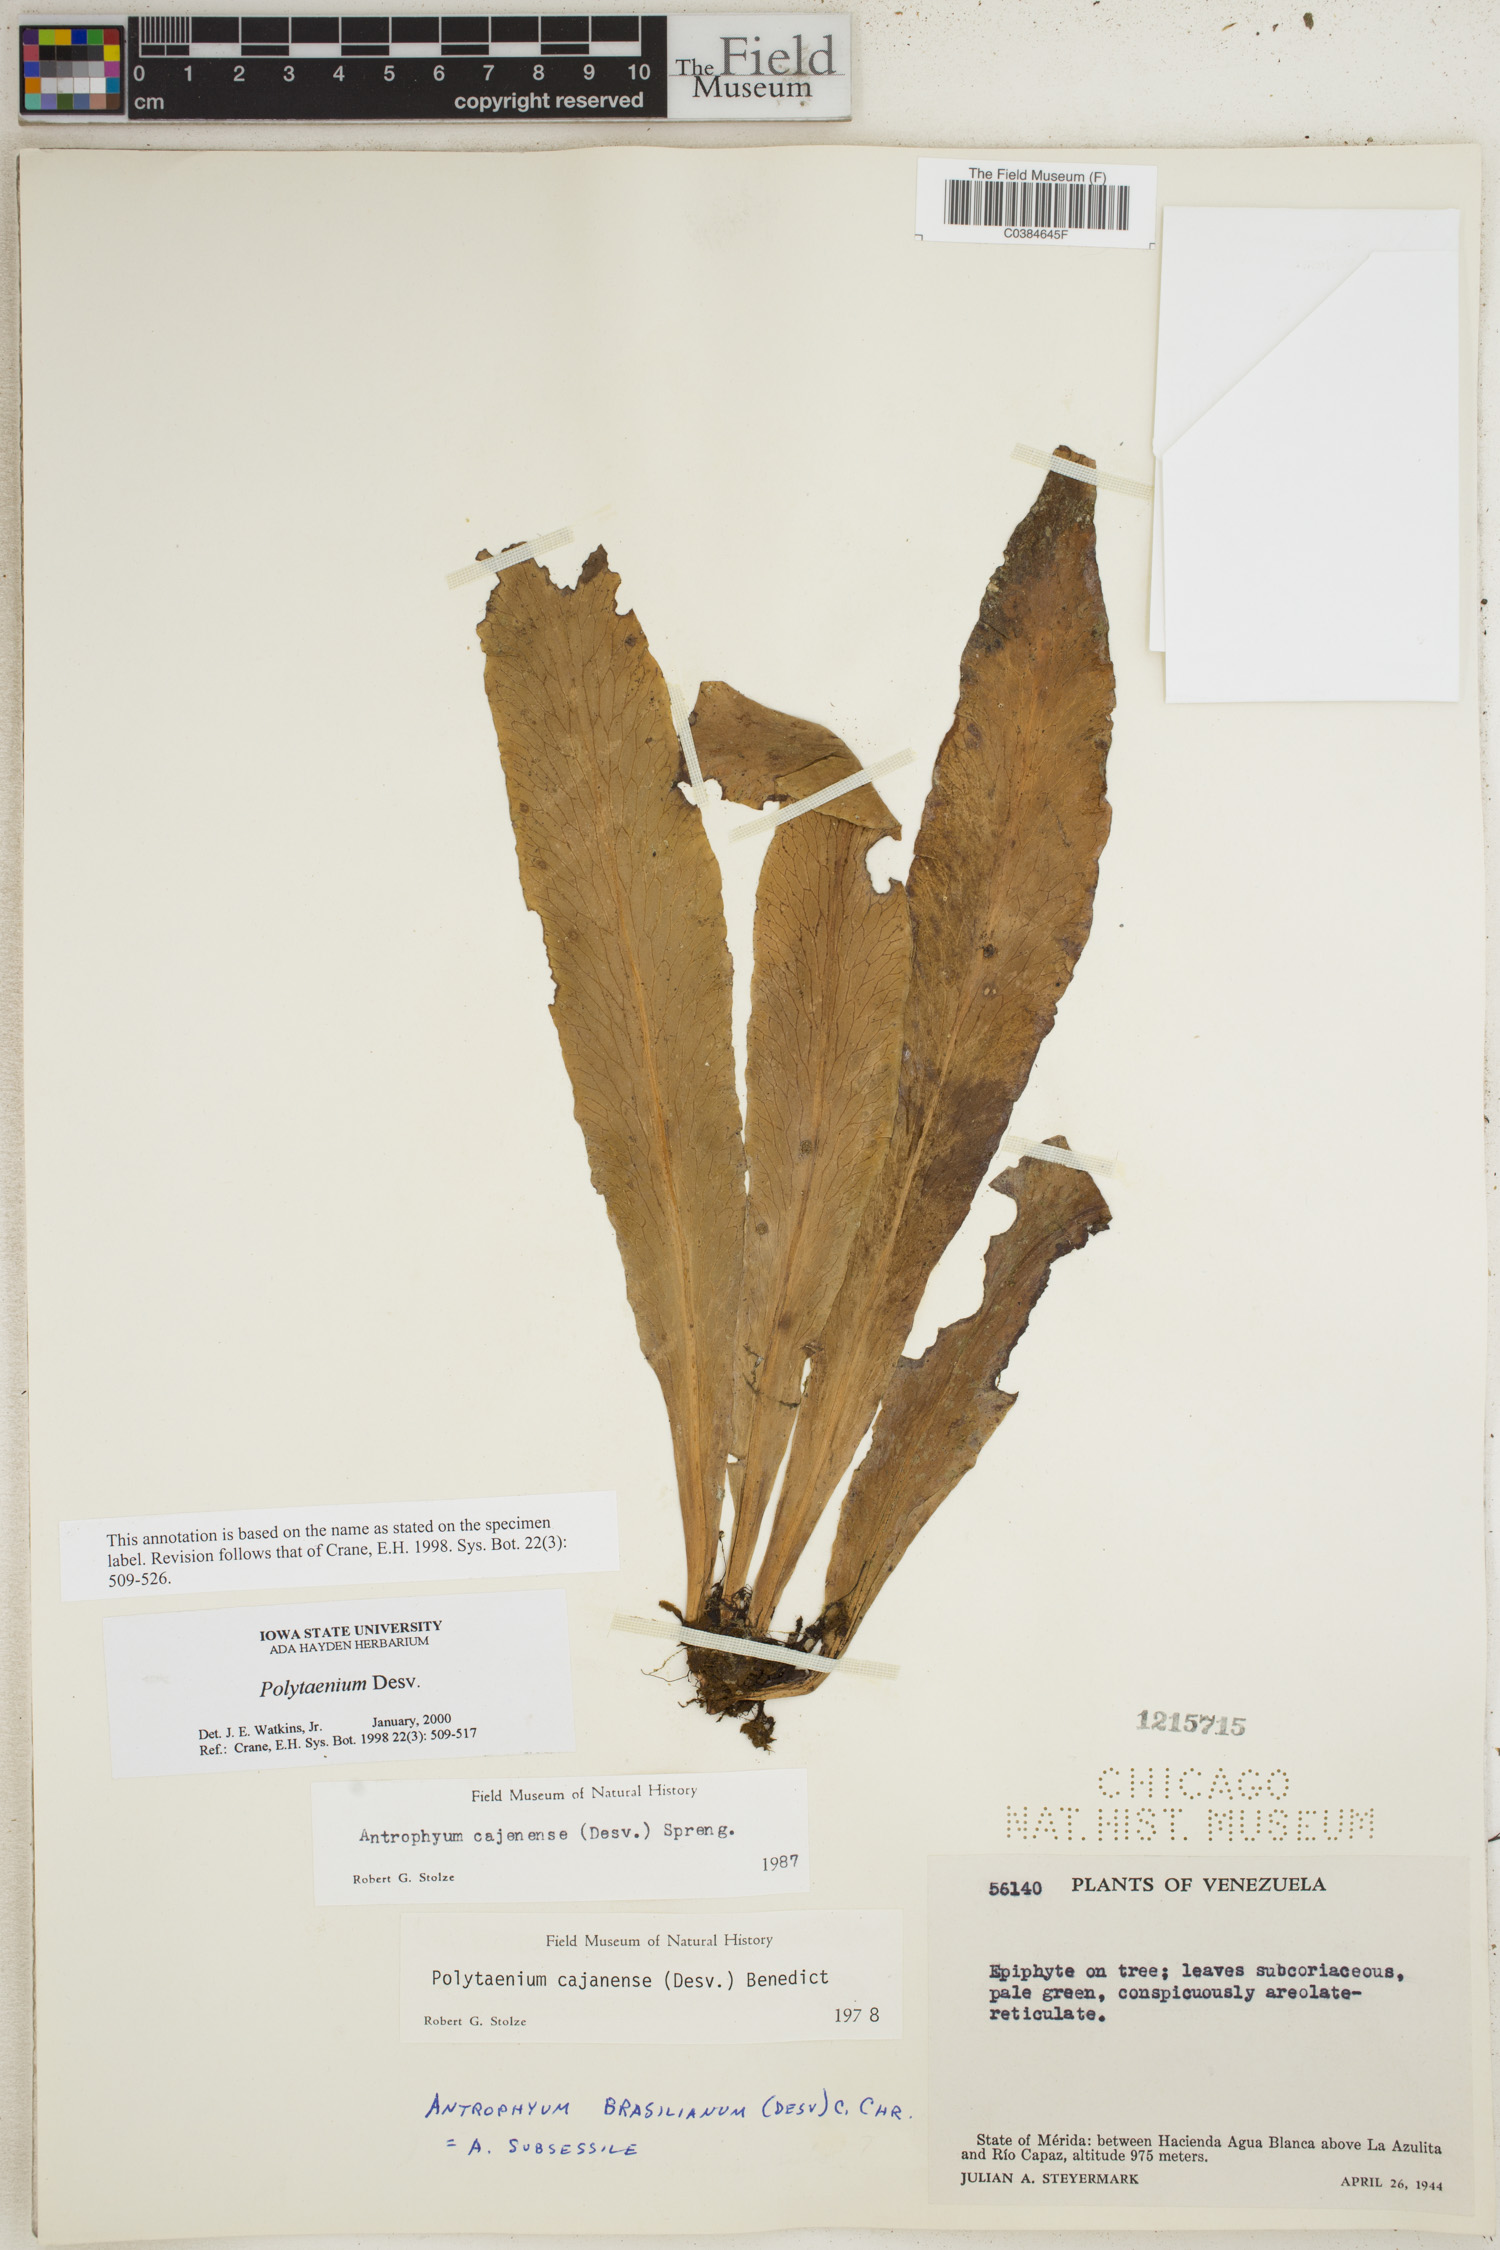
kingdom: Plantae
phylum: Tracheophyta
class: Polypodiopsida
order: Polypodiales
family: Pteridaceae
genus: Polytaenium
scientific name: Polytaenium
